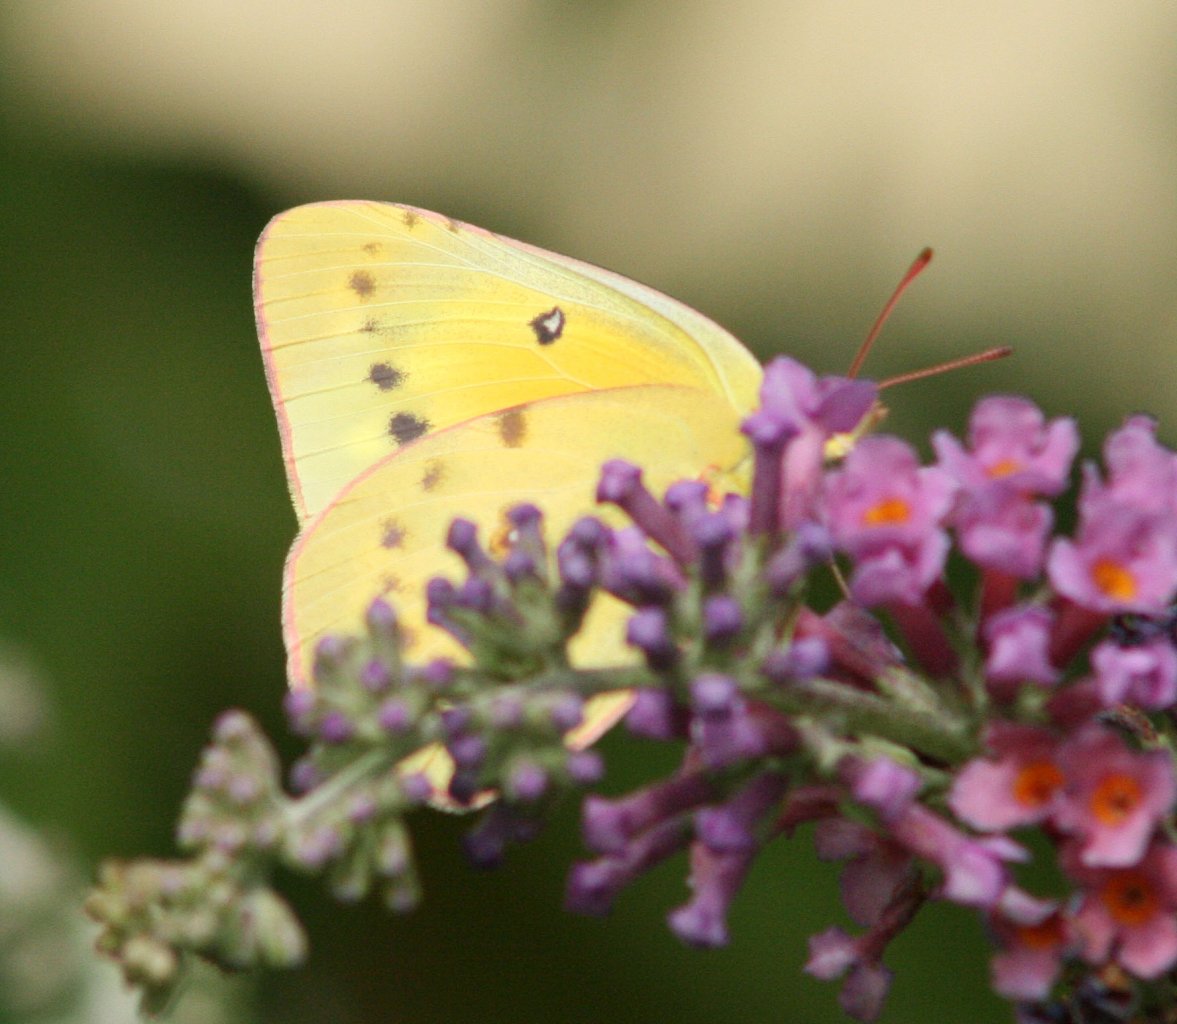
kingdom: Animalia
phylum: Arthropoda
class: Insecta
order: Lepidoptera
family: Pieridae
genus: Colias
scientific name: Colias eurytheme
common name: Orange Sulphur
